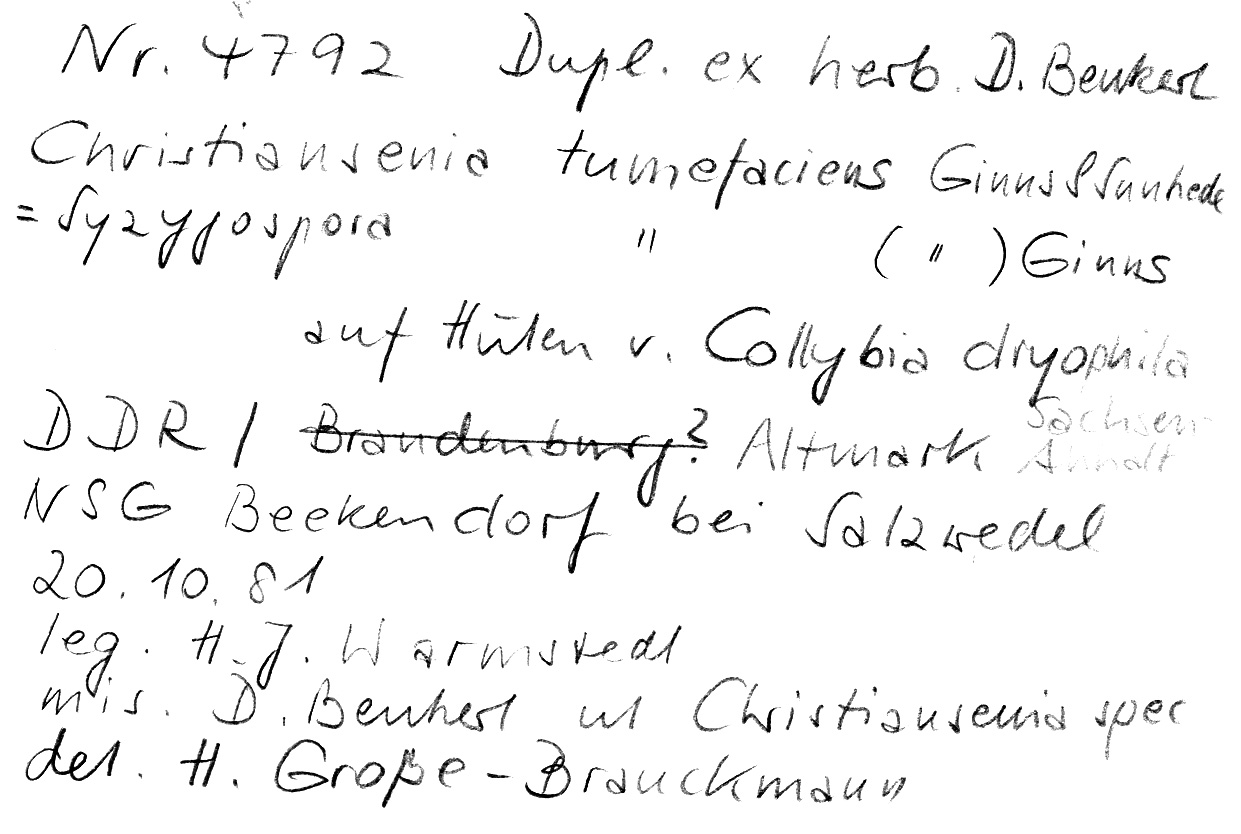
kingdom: Fungi
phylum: Basidiomycota
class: Agaricomycetes
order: Agaricales
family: Omphalotaceae
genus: Gymnopus
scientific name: Gymnopus dryophilus
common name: Penny top
